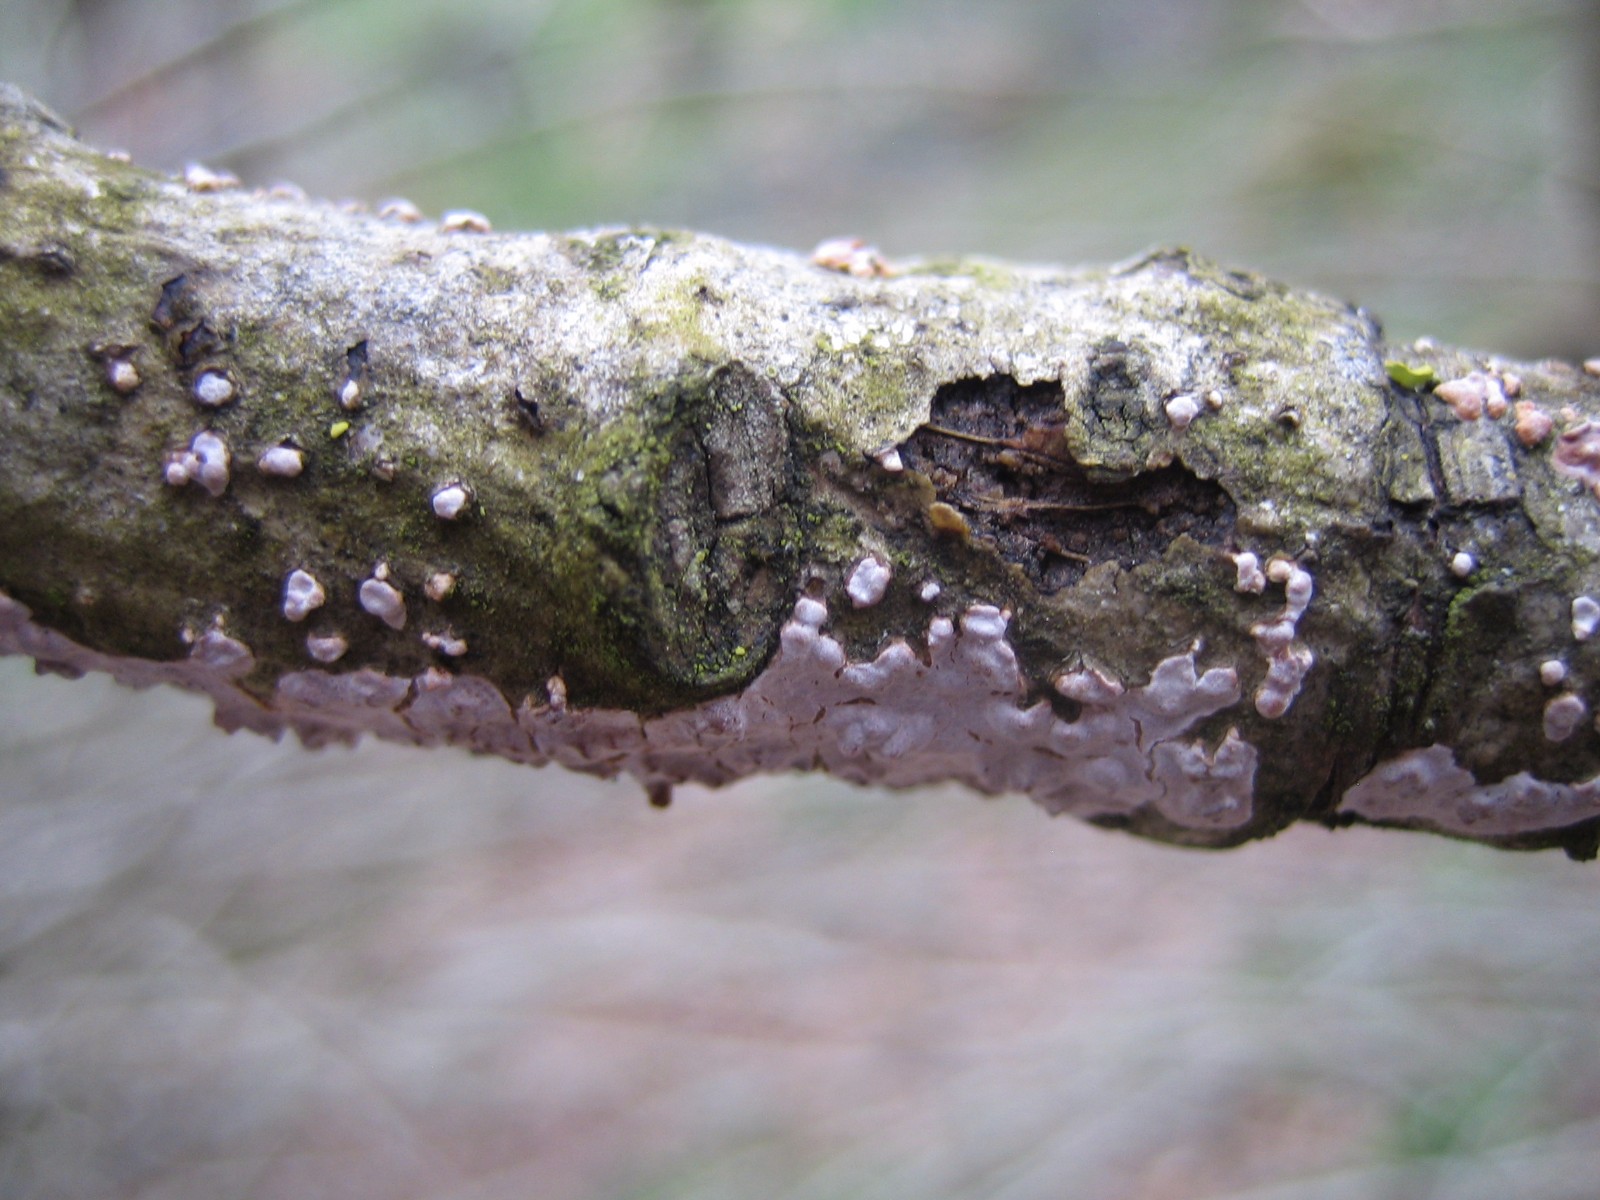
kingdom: Fungi
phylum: Basidiomycota
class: Agaricomycetes
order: Russulales
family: Peniophoraceae
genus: Peniophora
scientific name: Peniophora polygonia
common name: polygon-voksskind
